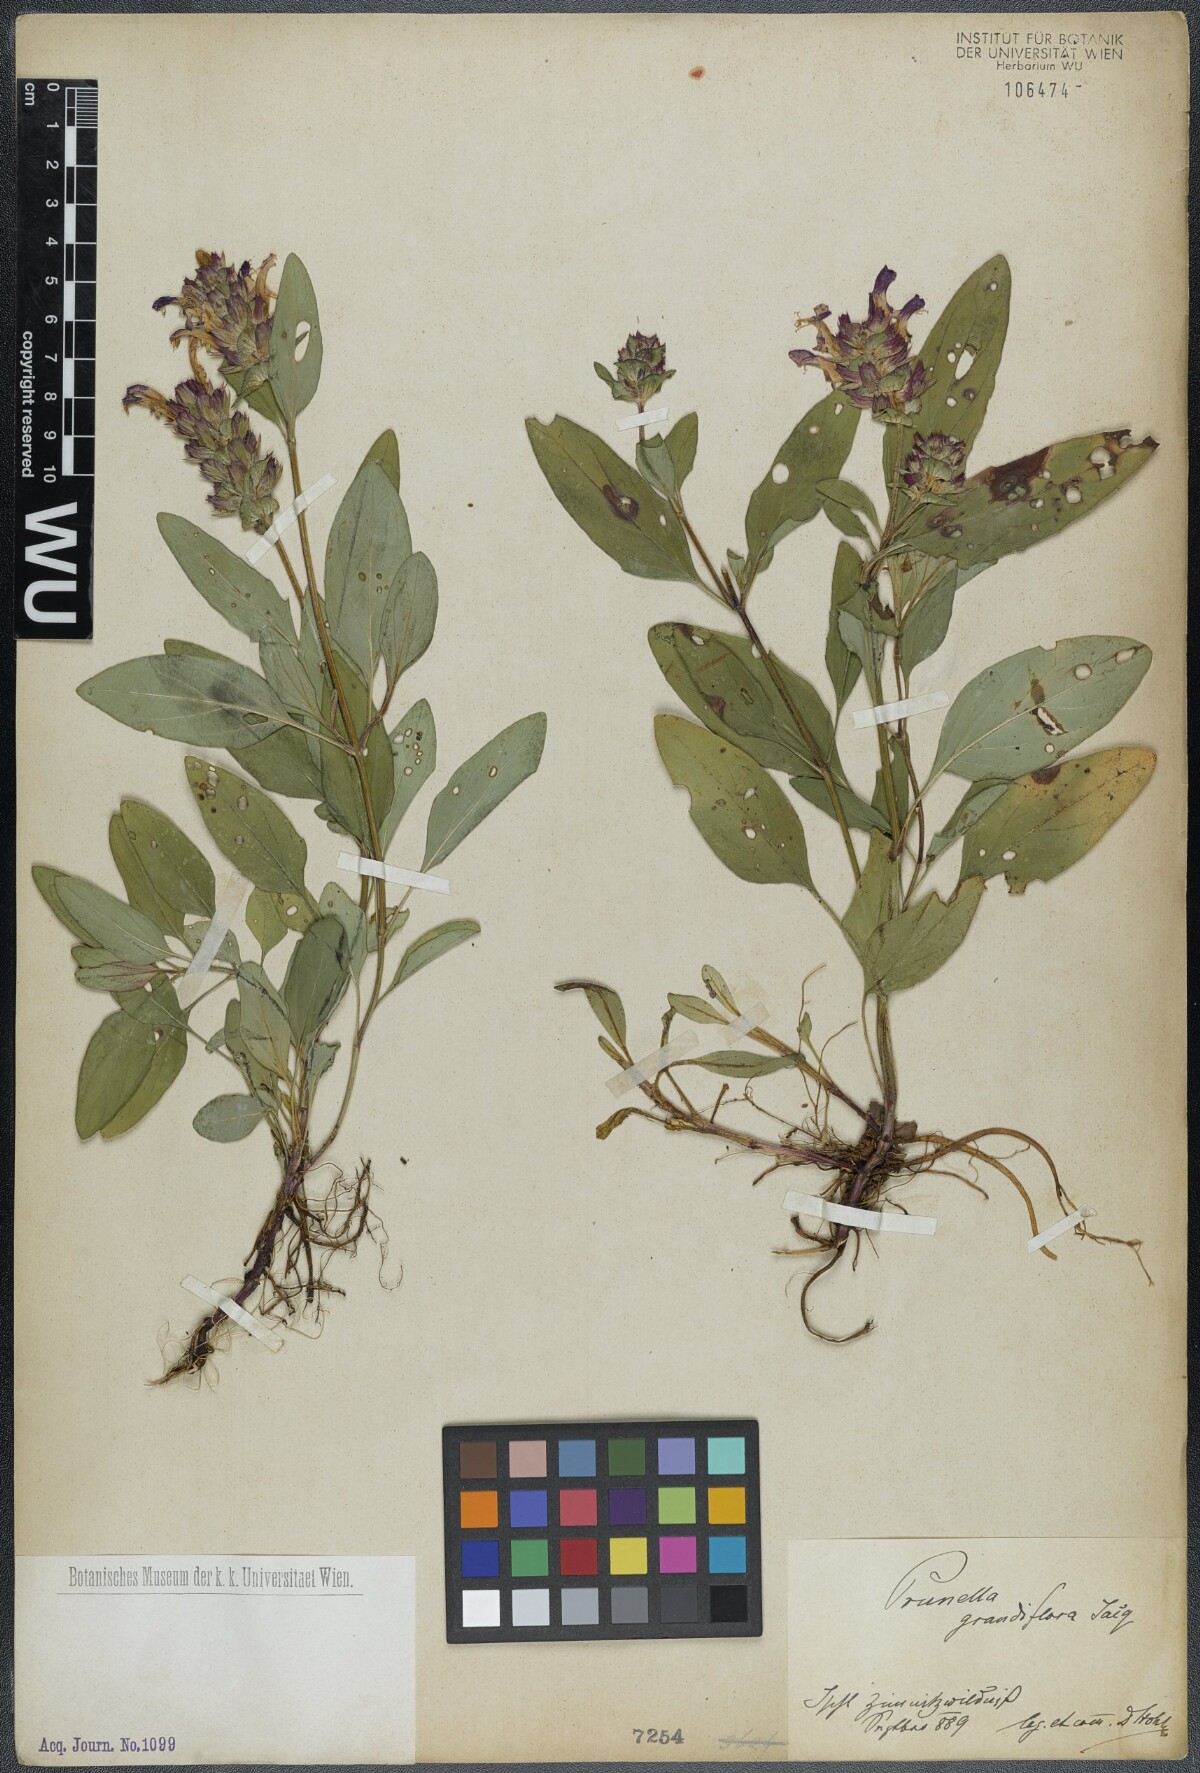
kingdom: Plantae
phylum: Tracheophyta
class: Magnoliopsida
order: Lamiales
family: Lamiaceae
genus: Prunella
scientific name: Prunella grandiflora
